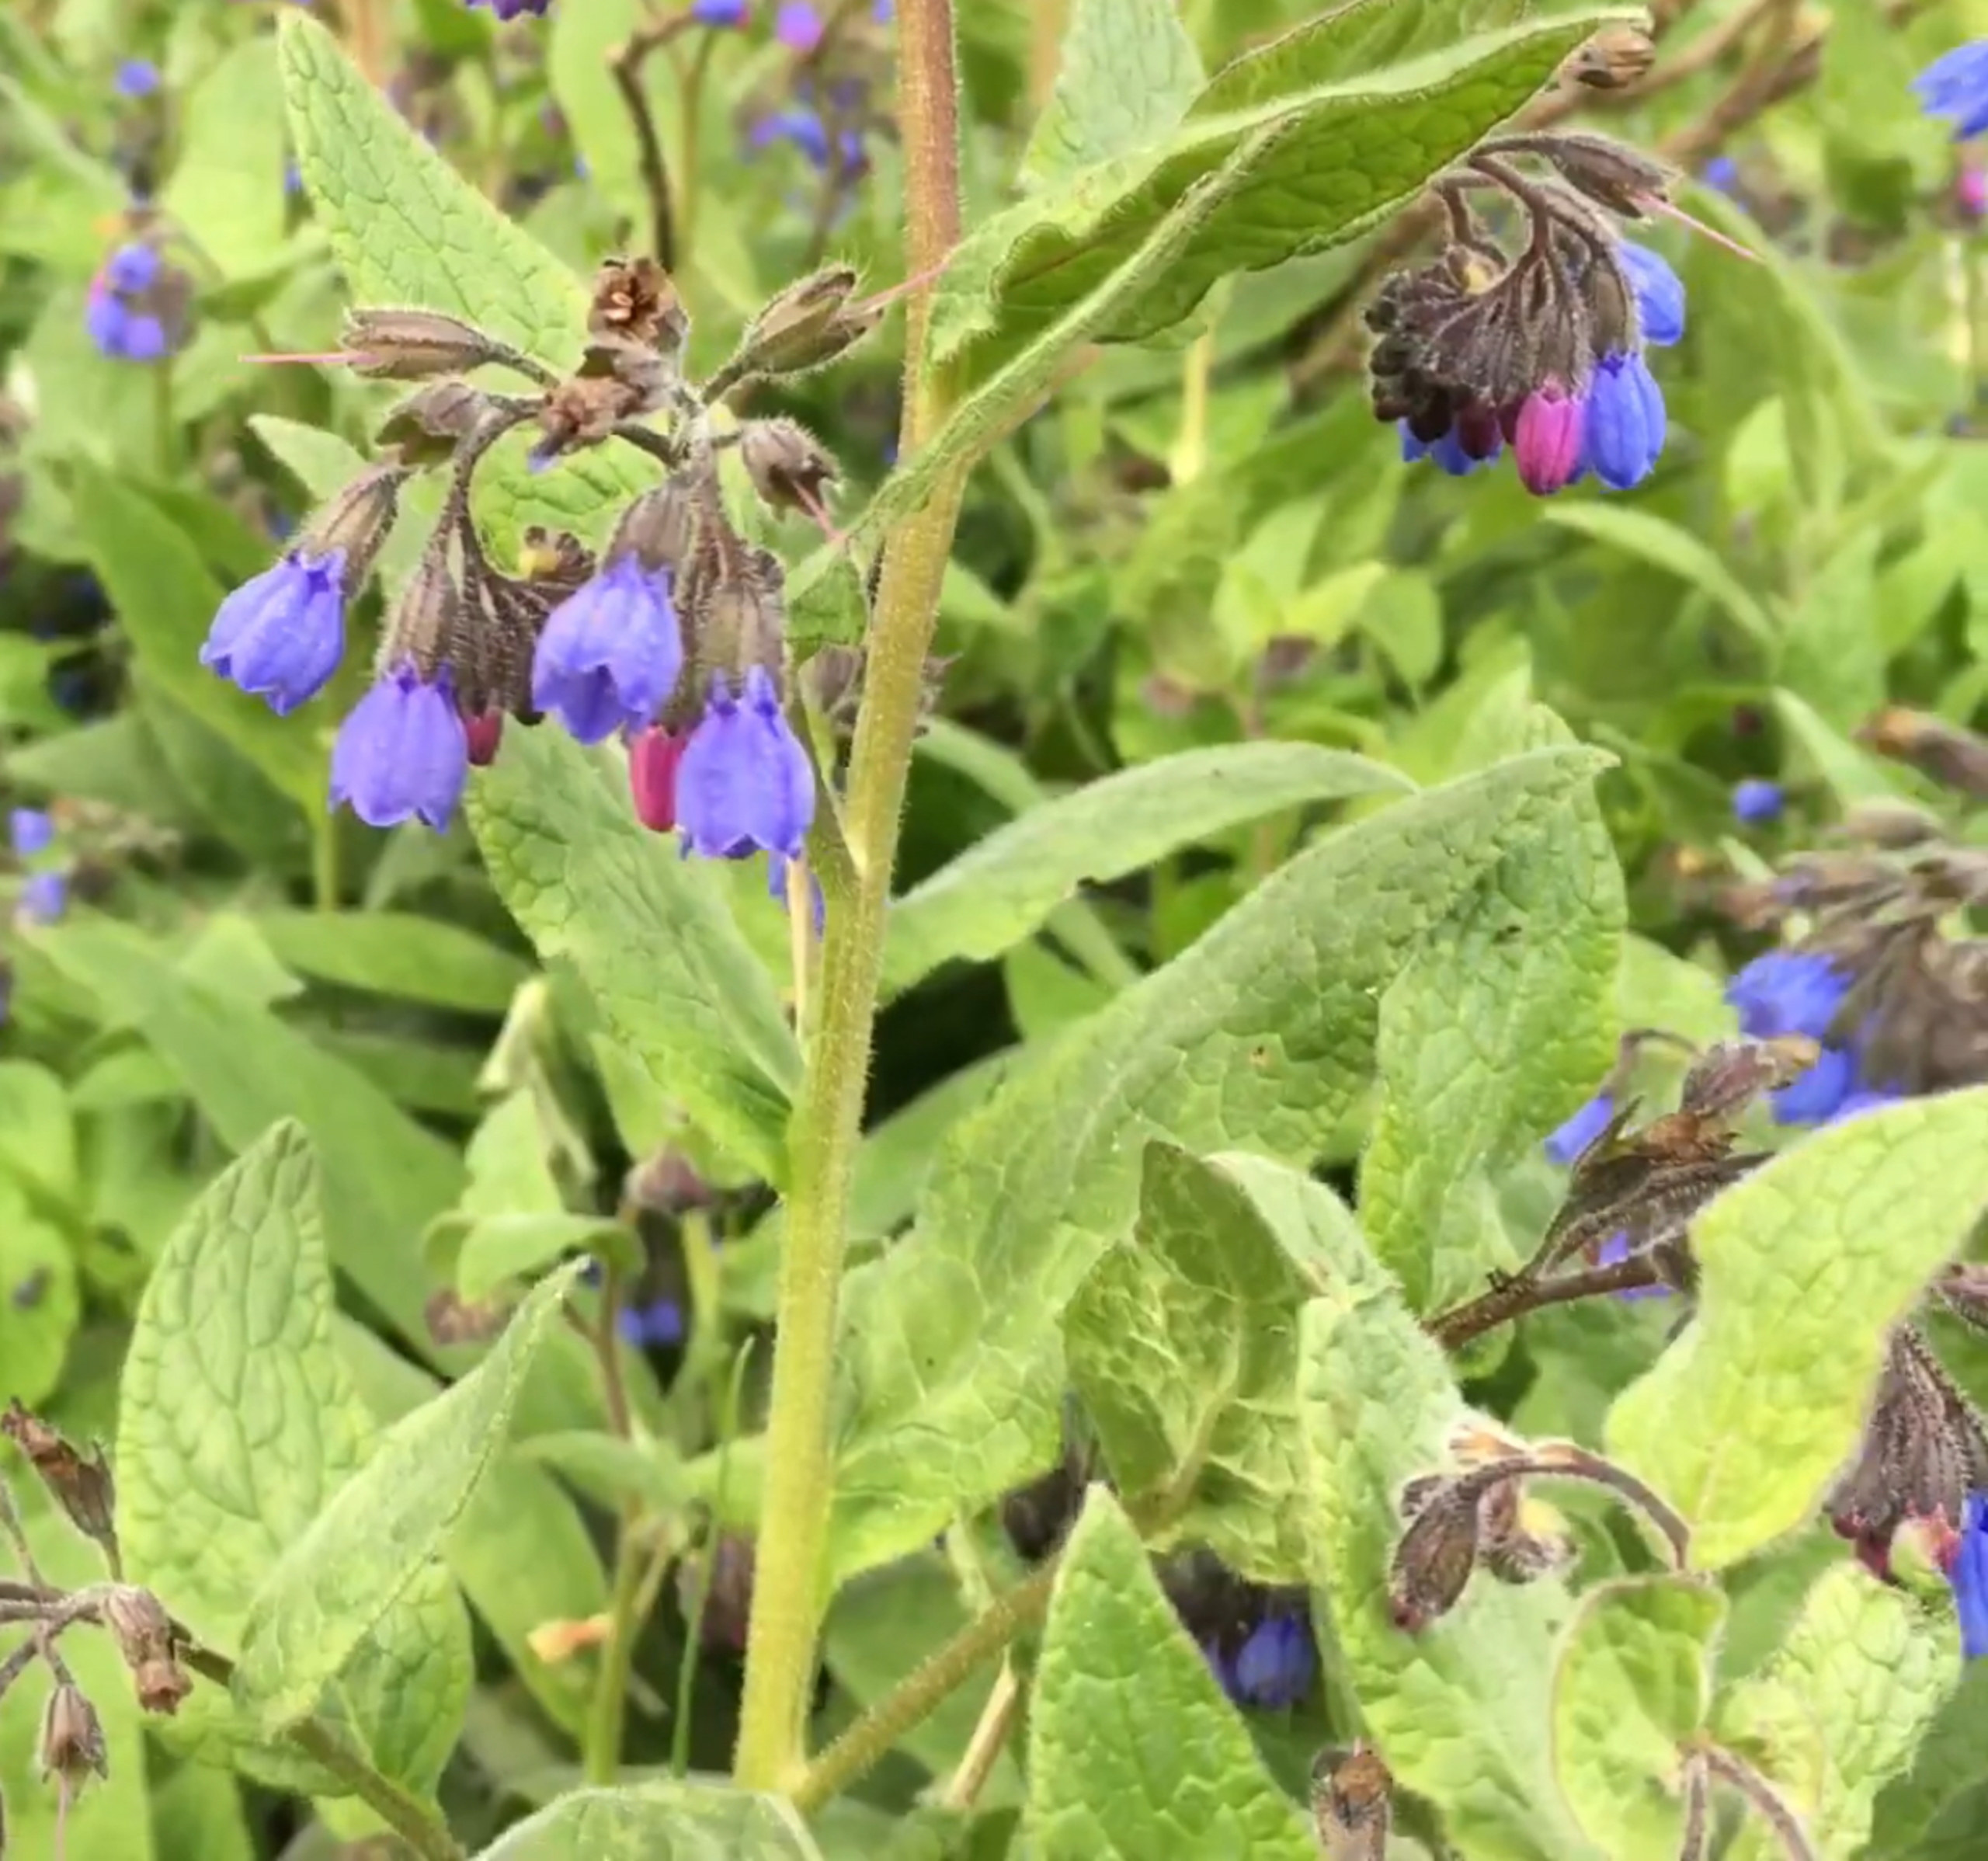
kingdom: Plantae
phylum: Tracheophyta
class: Magnoliopsida
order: Boraginales
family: Boraginaceae
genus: Symphytum
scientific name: Symphytum uplandicum
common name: Foder-kulsukker
